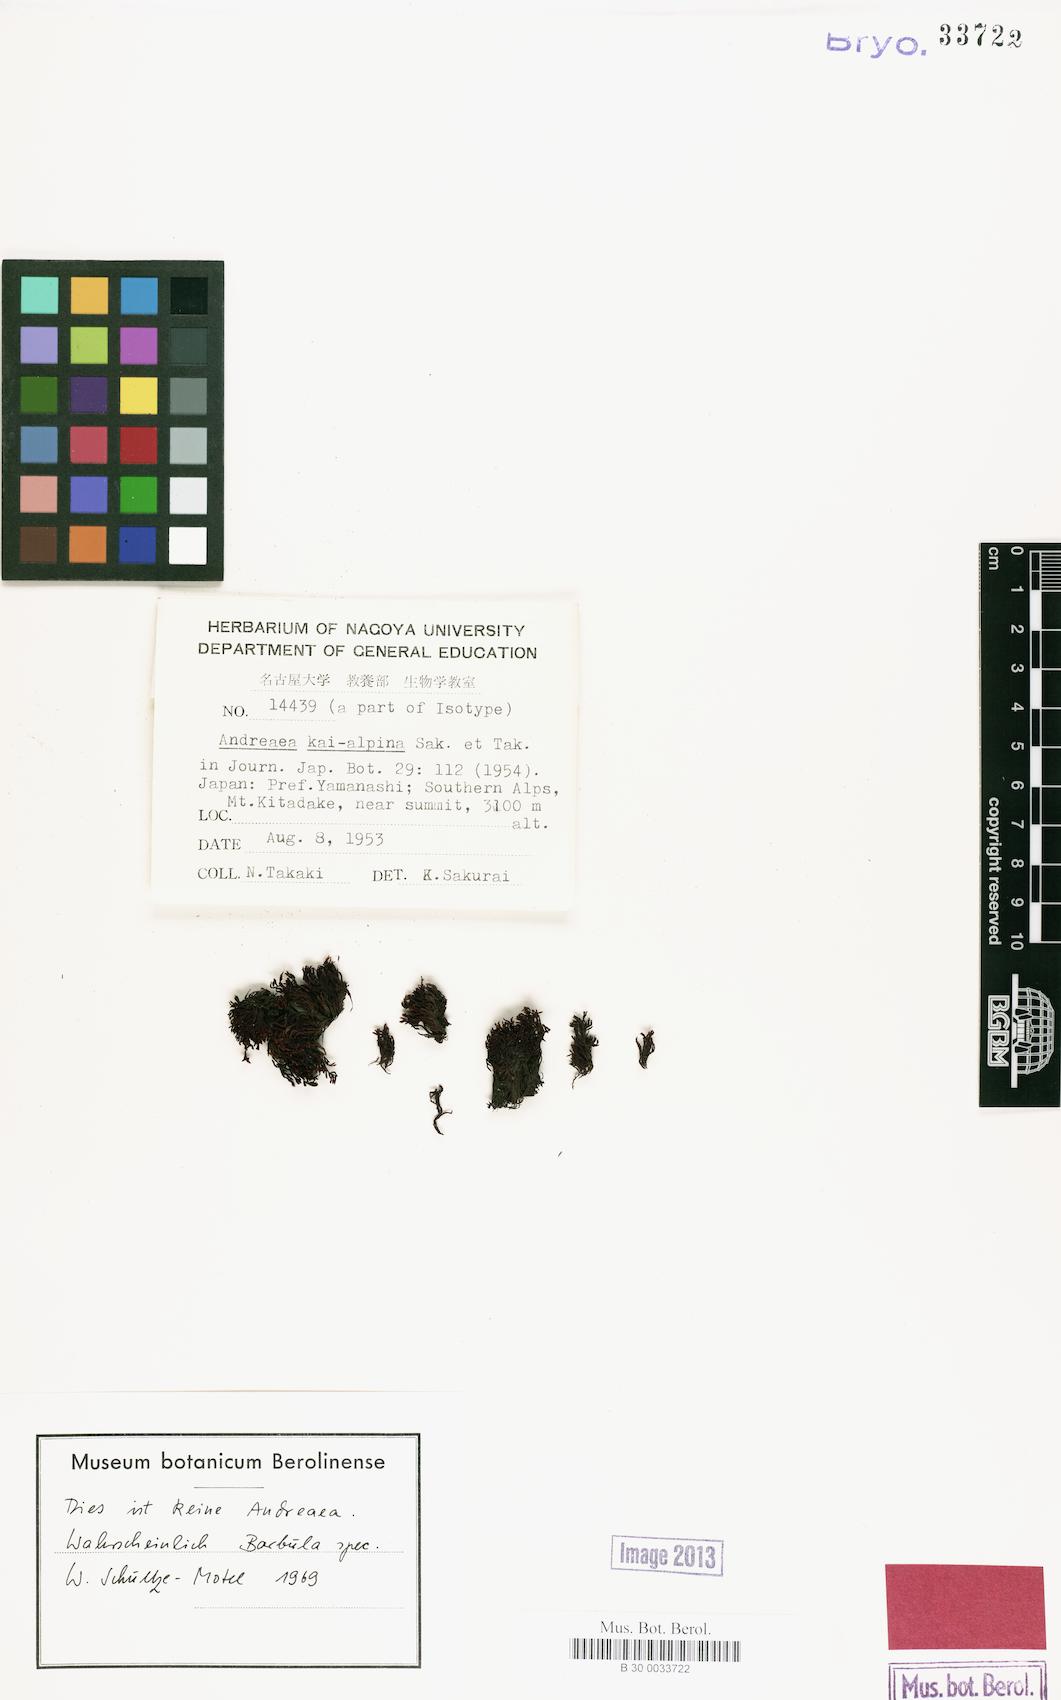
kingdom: Plantae
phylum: Bryophyta
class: Bryopsida
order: Pottiales
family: Pottiaceae
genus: Didymodon
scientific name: Didymodon nigrescens
